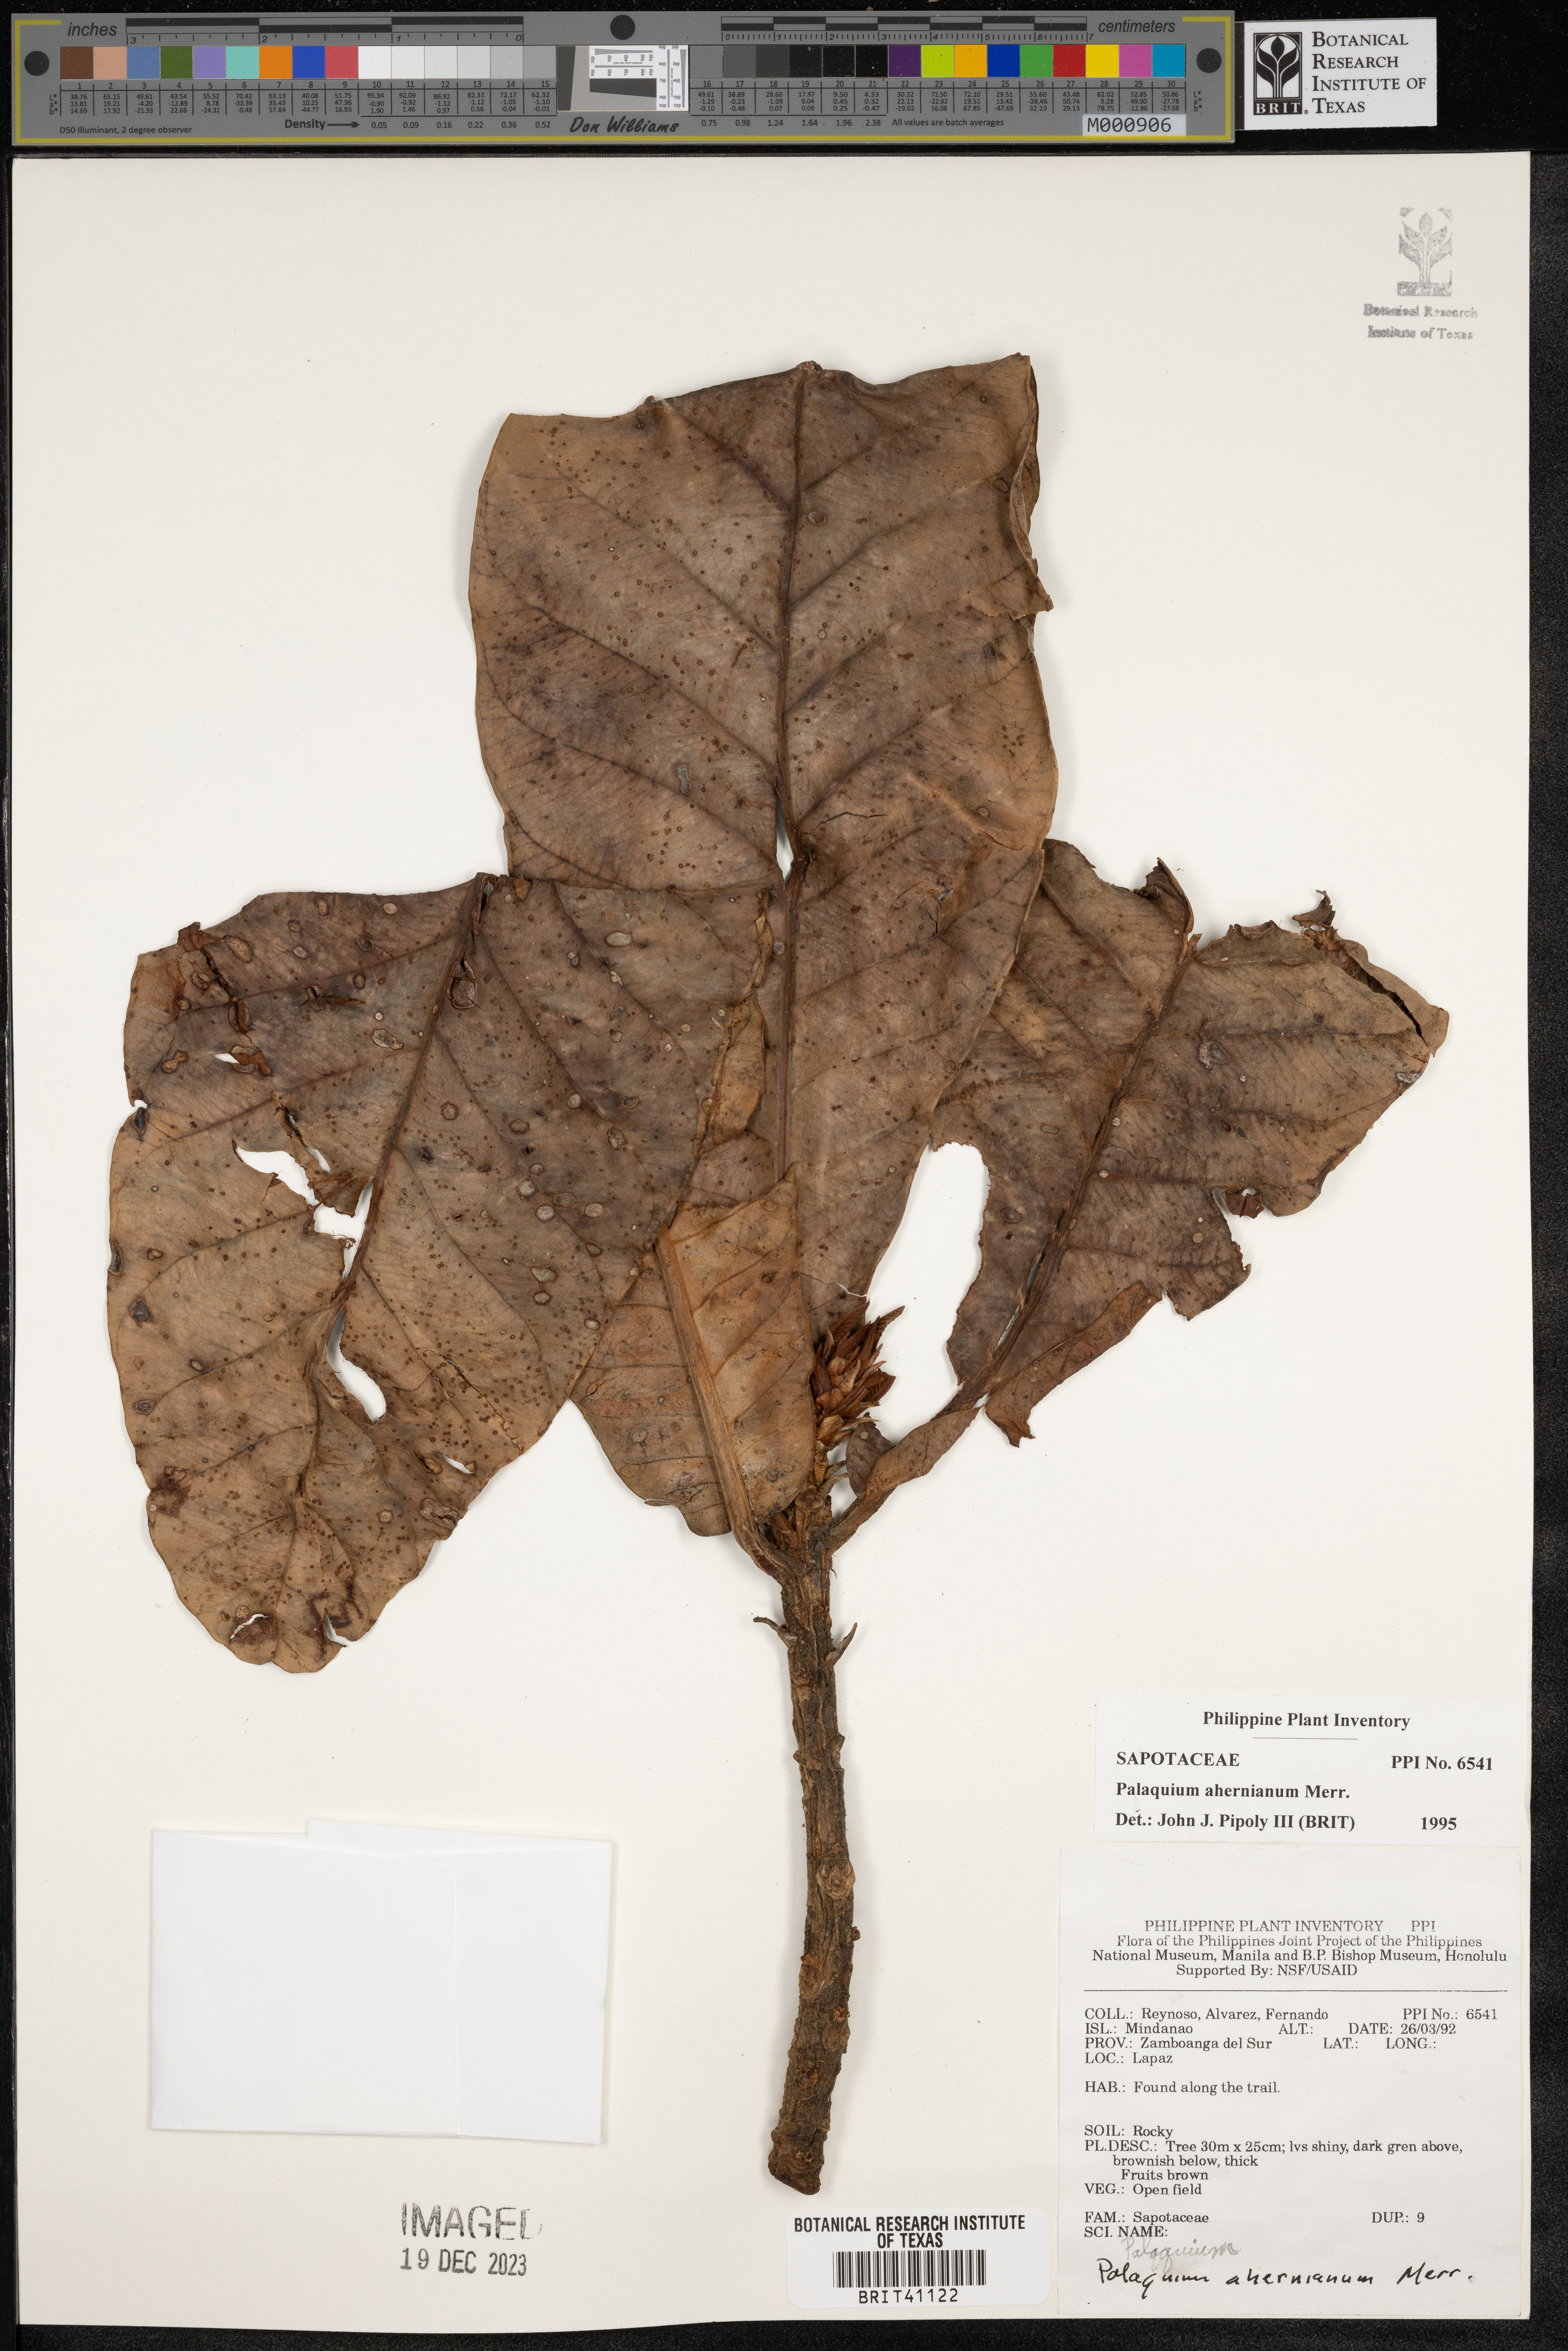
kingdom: Plantae
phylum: Tracheophyta
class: Magnoliopsida
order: Ericales
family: Sapotaceae
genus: Palaquium
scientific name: Palaquium luzoniense
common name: Red nato
